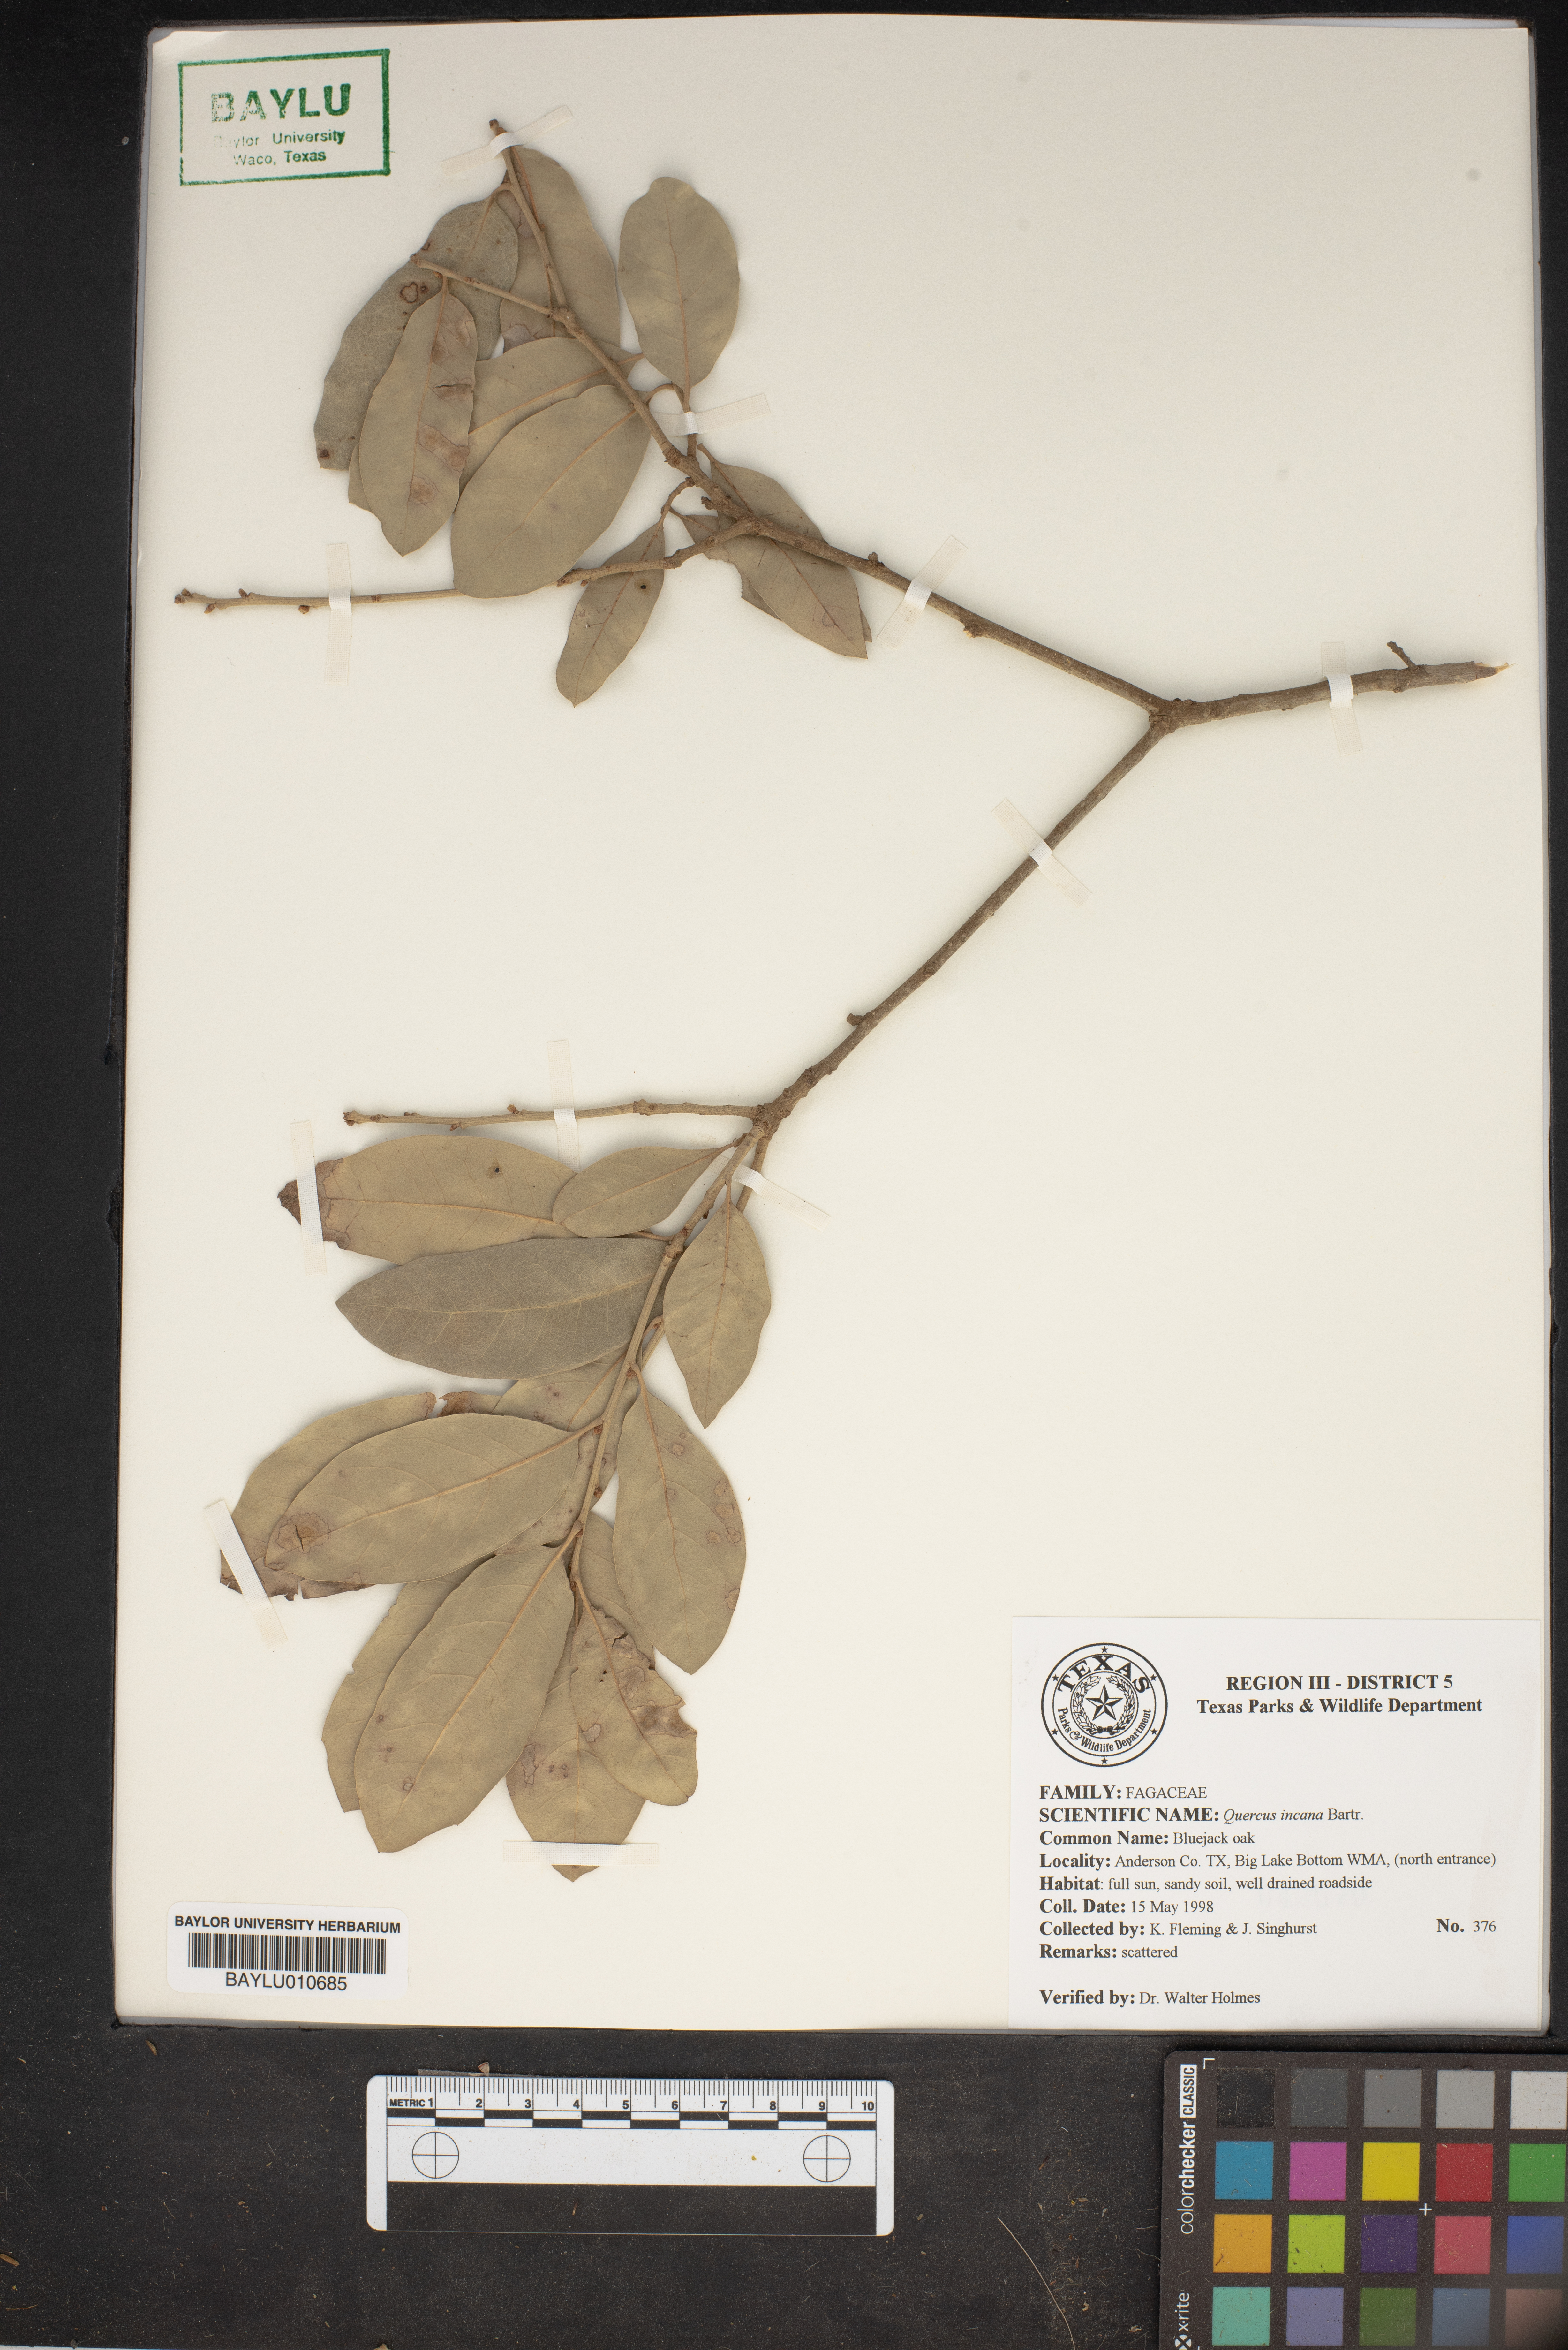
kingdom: Plantae
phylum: Tracheophyta
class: Magnoliopsida
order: Fagales
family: Fagaceae
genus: Quercus
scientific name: Quercus incana
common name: Bluejack oak
